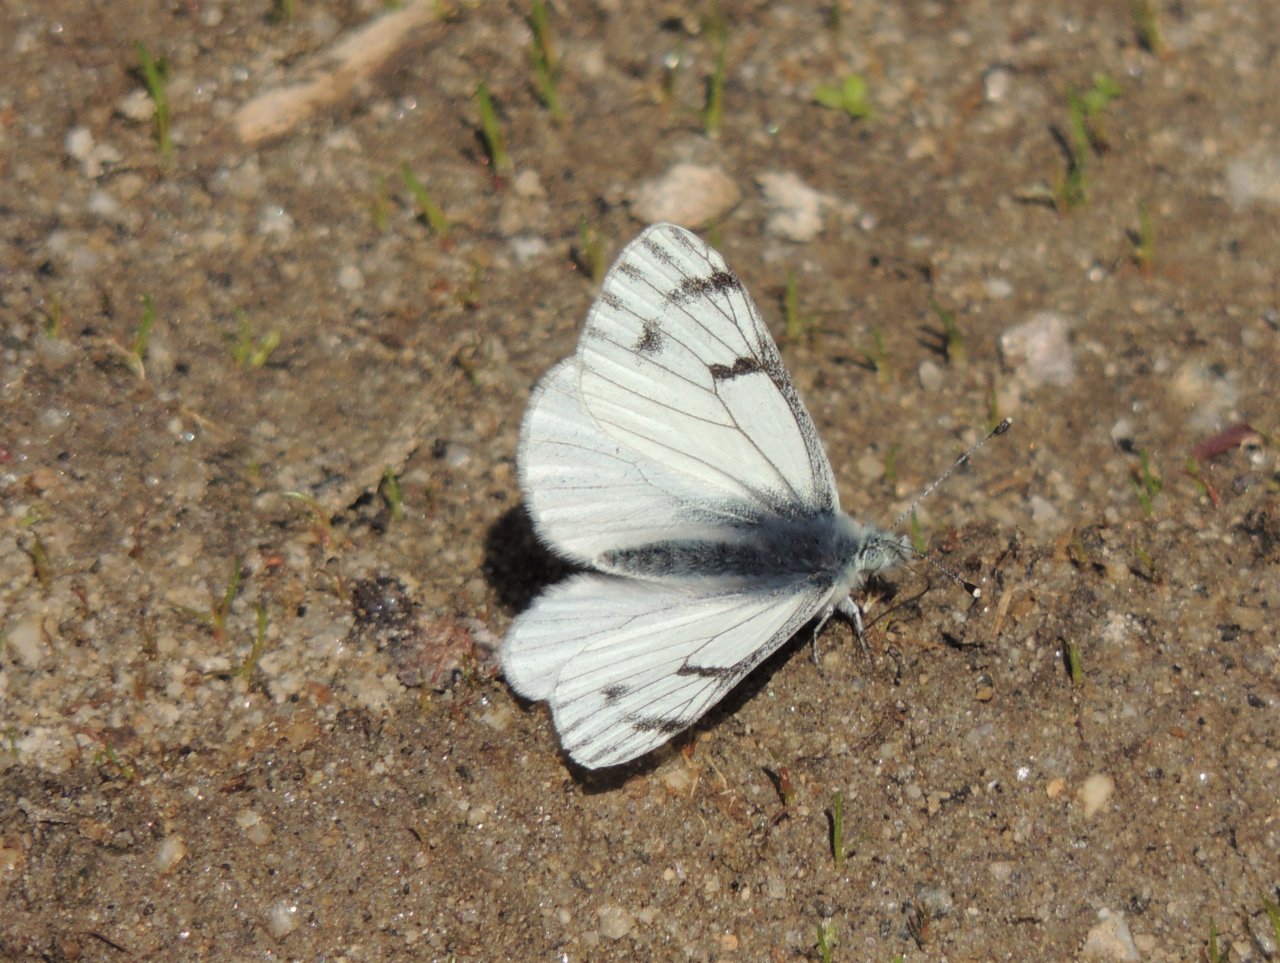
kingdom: Animalia
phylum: Arthropoda
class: Insecta
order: Lepidoptera
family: Pieridae
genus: Pontia
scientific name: Pontia sisymbrii
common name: Spring White
